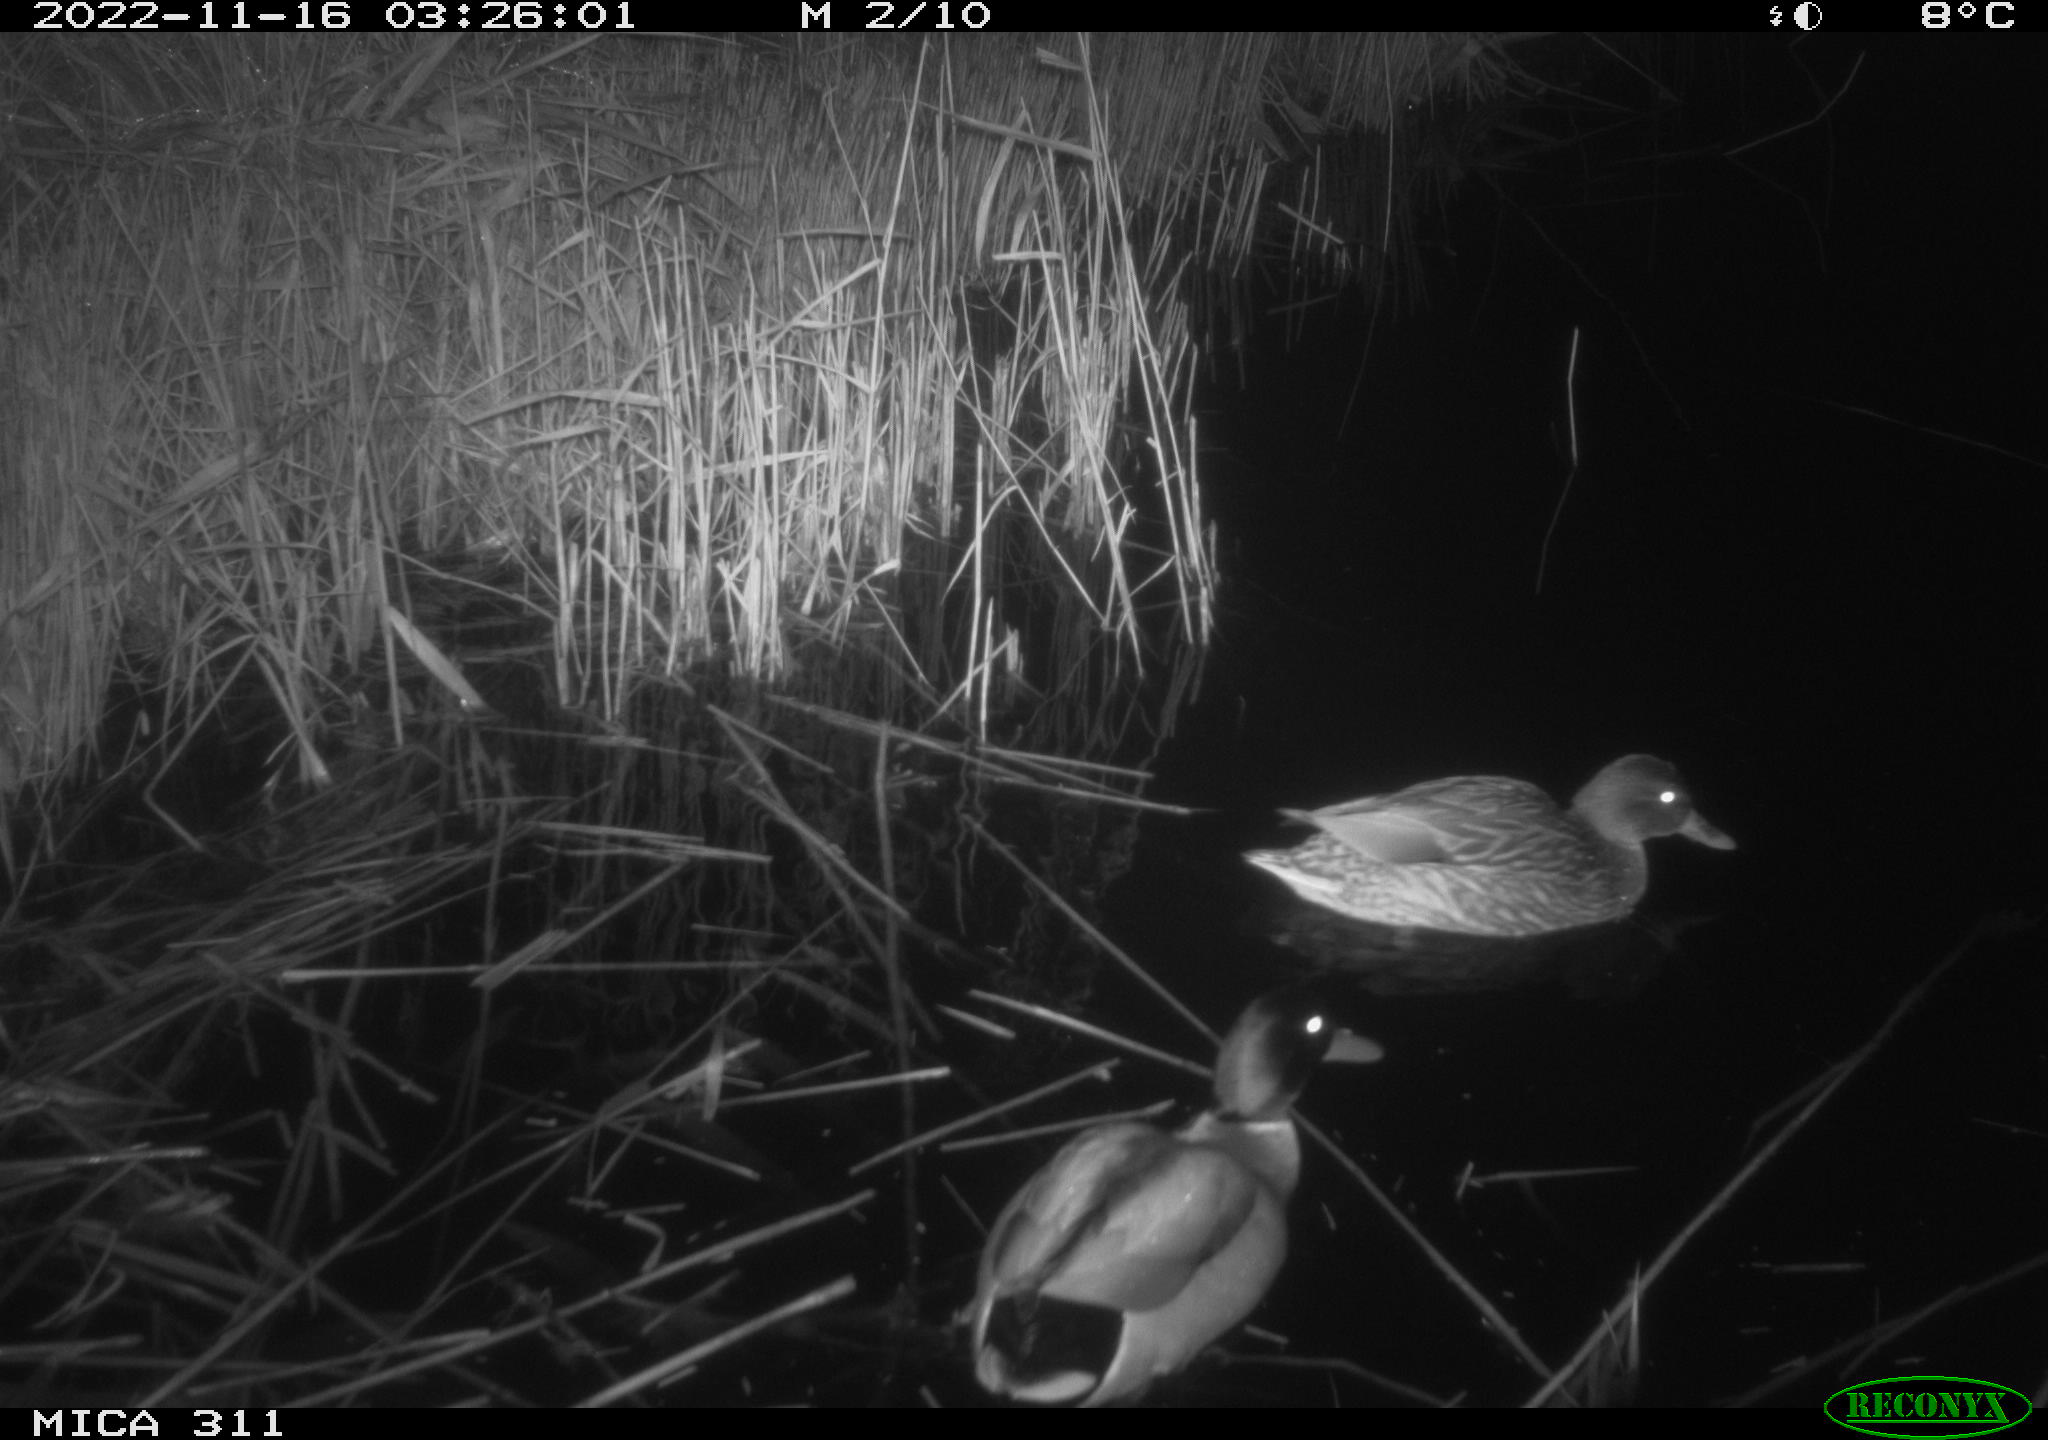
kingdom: Animalia
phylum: Chordata
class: Aves
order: Anseriformes
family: Anatidae
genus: Anas
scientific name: Anas
